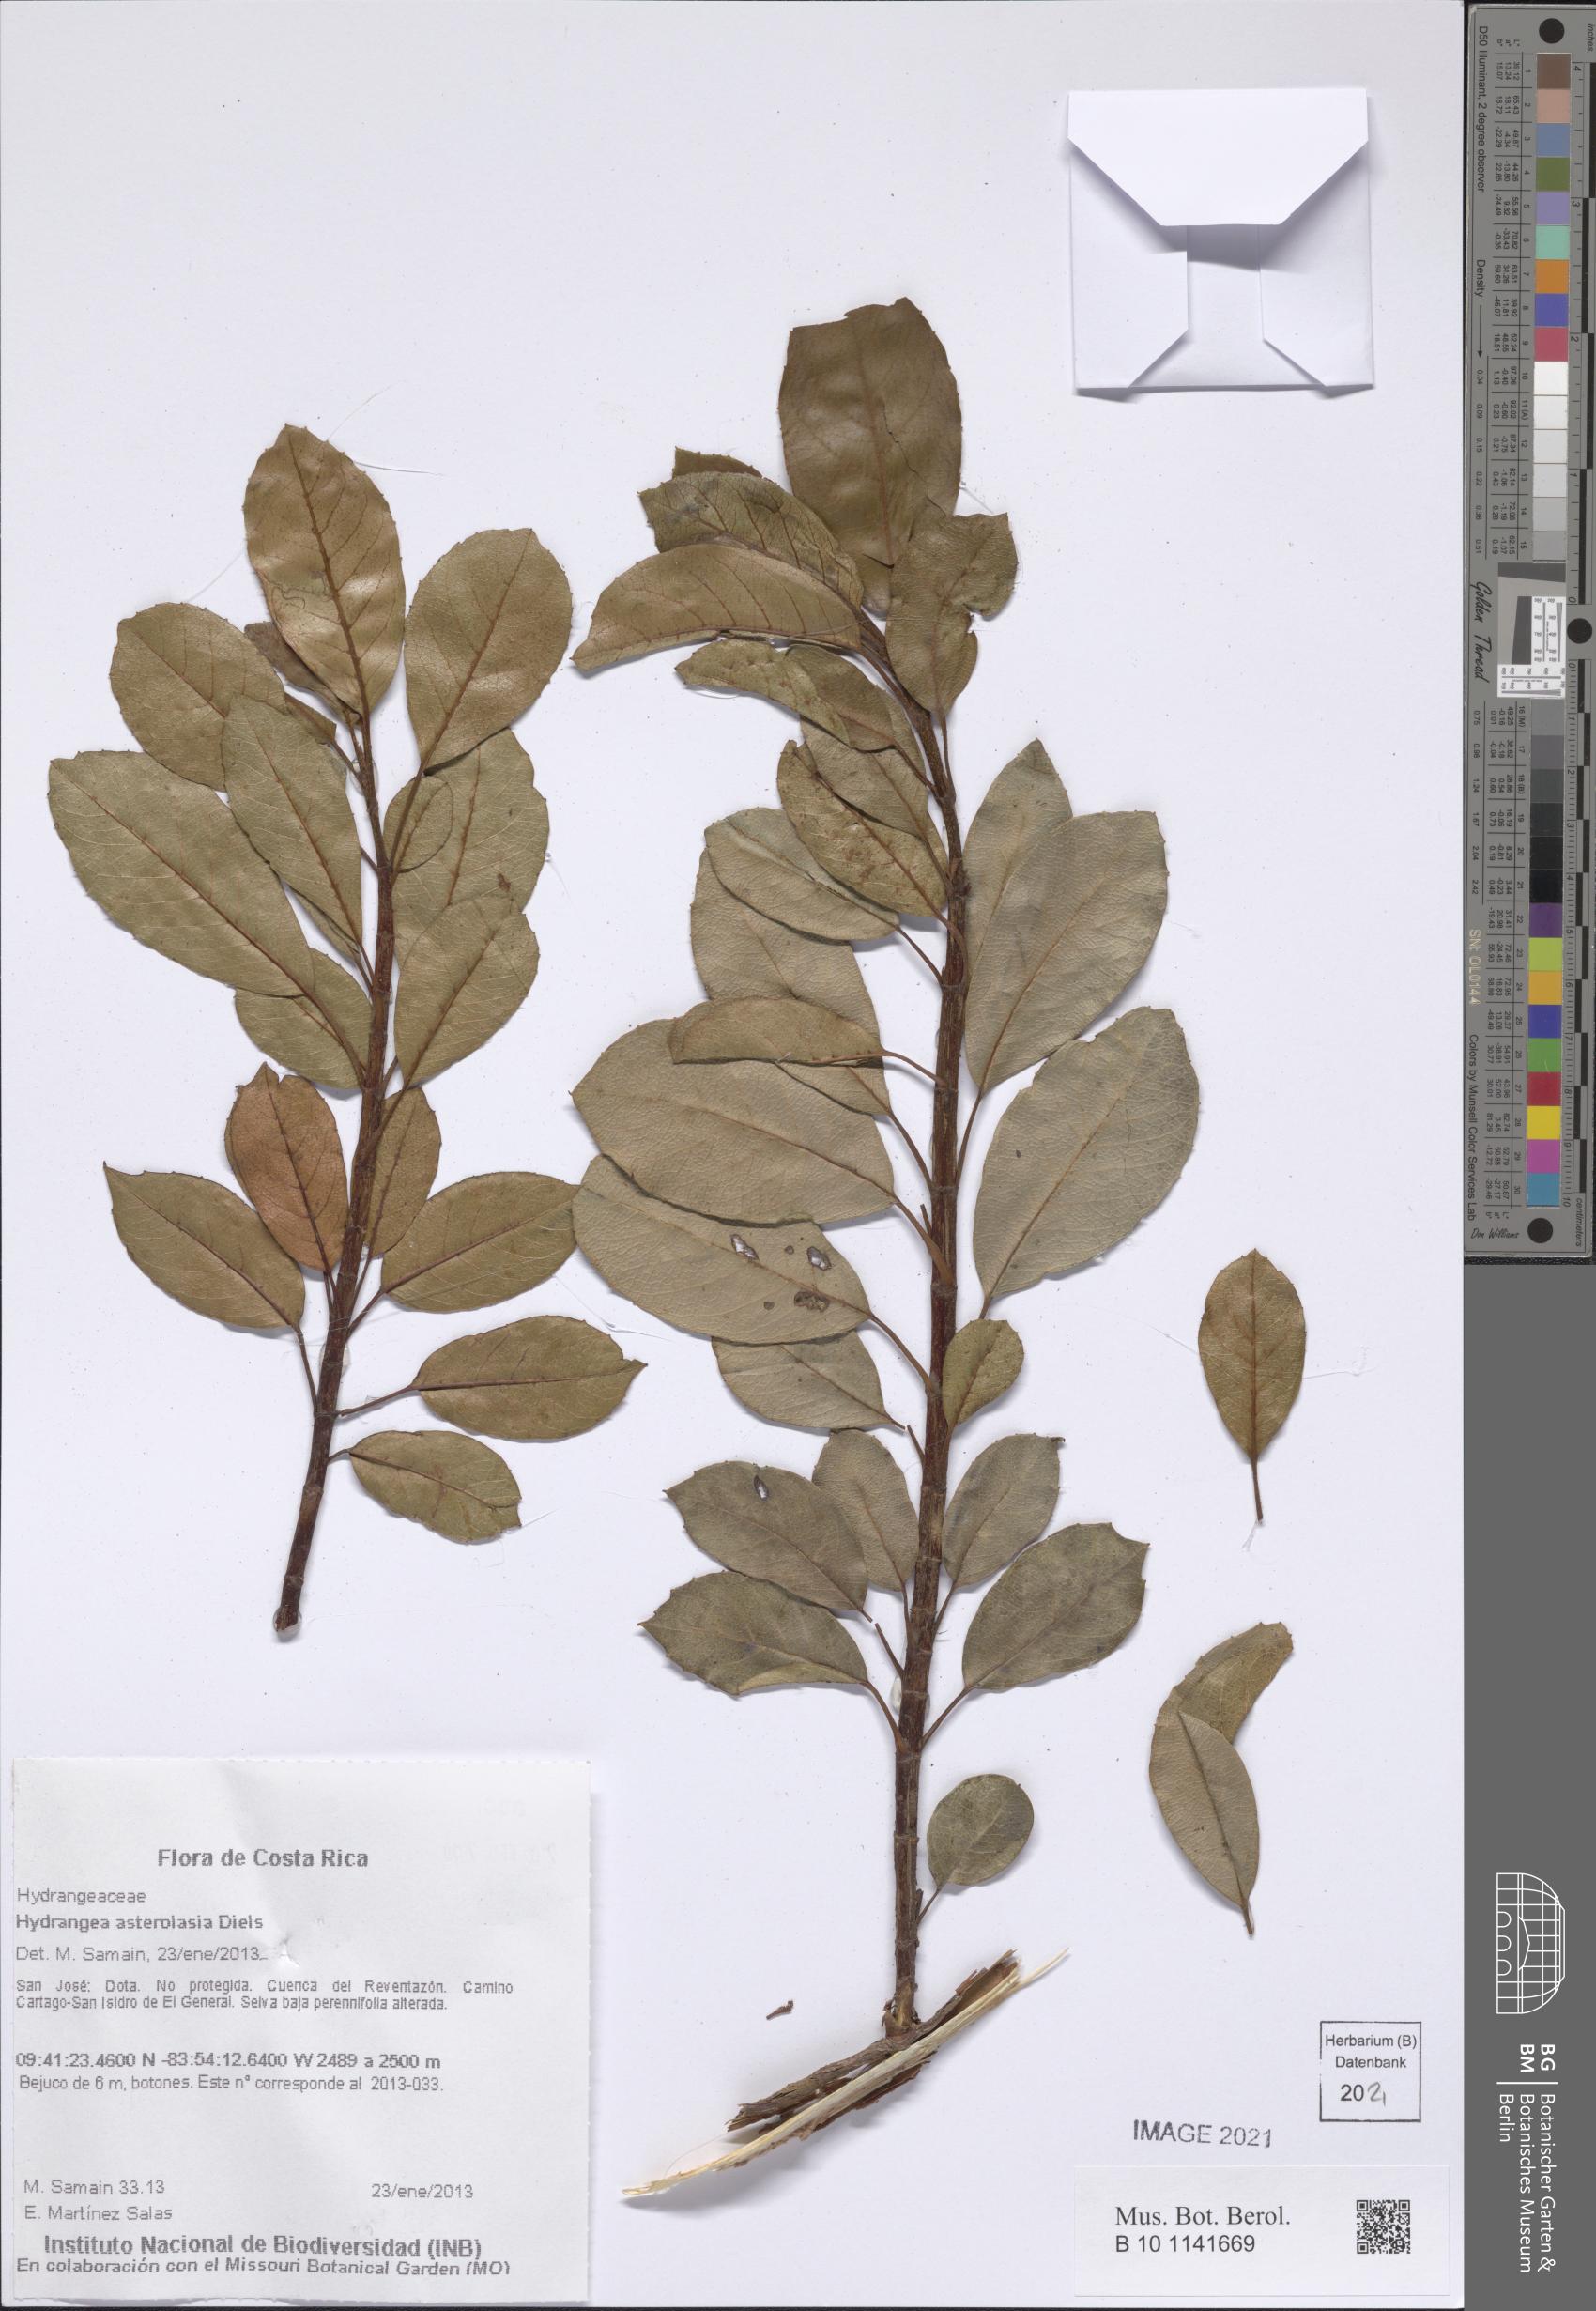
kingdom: Plantae
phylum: Tracheophyta
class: Magnoliopsida
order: Cornales
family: Hydrangeaceae
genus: Hydrangea
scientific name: Hydrangea asterolasia
